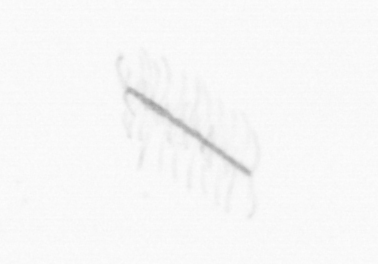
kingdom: Chromista
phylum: Ochrophyta
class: Bacillariophyceae
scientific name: Bacillariophyceae
